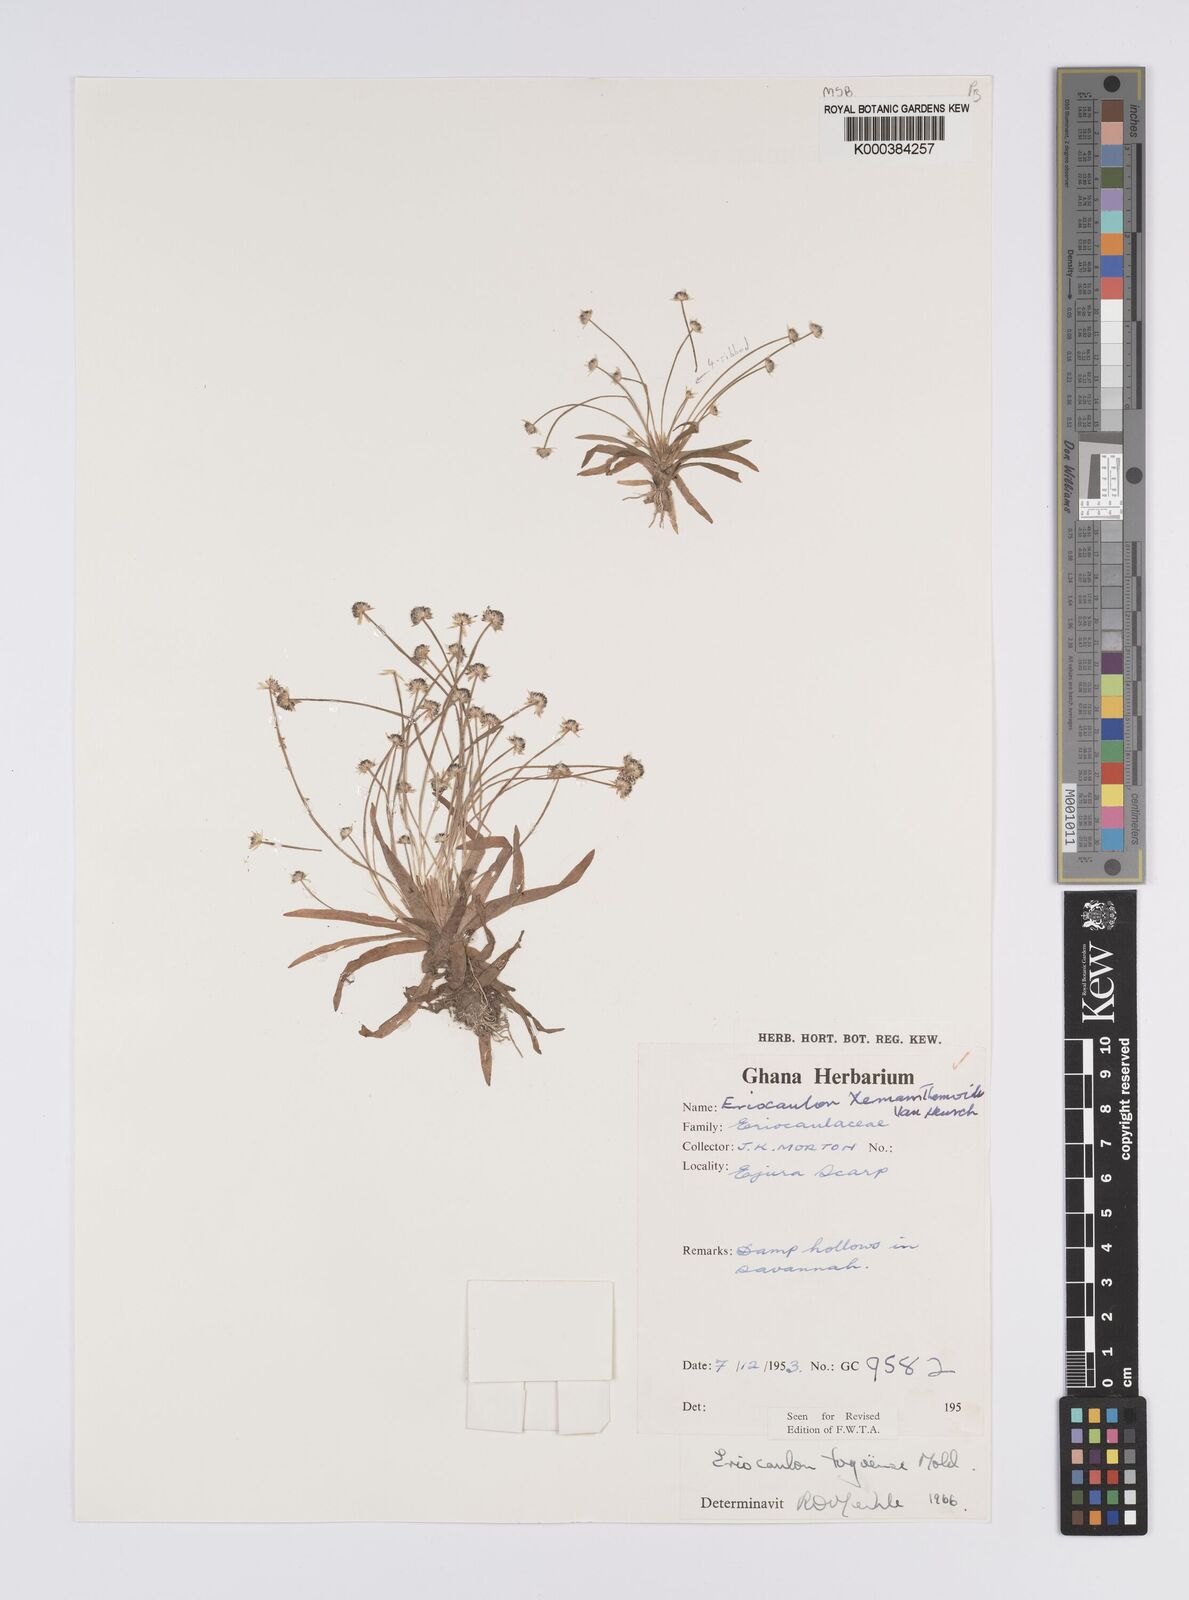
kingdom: Plantae
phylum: Tracheophyta
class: Liliopsida
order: Poales
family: Eriocaulaceae
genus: Eriocaulon
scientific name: Eriocaulon togoense
